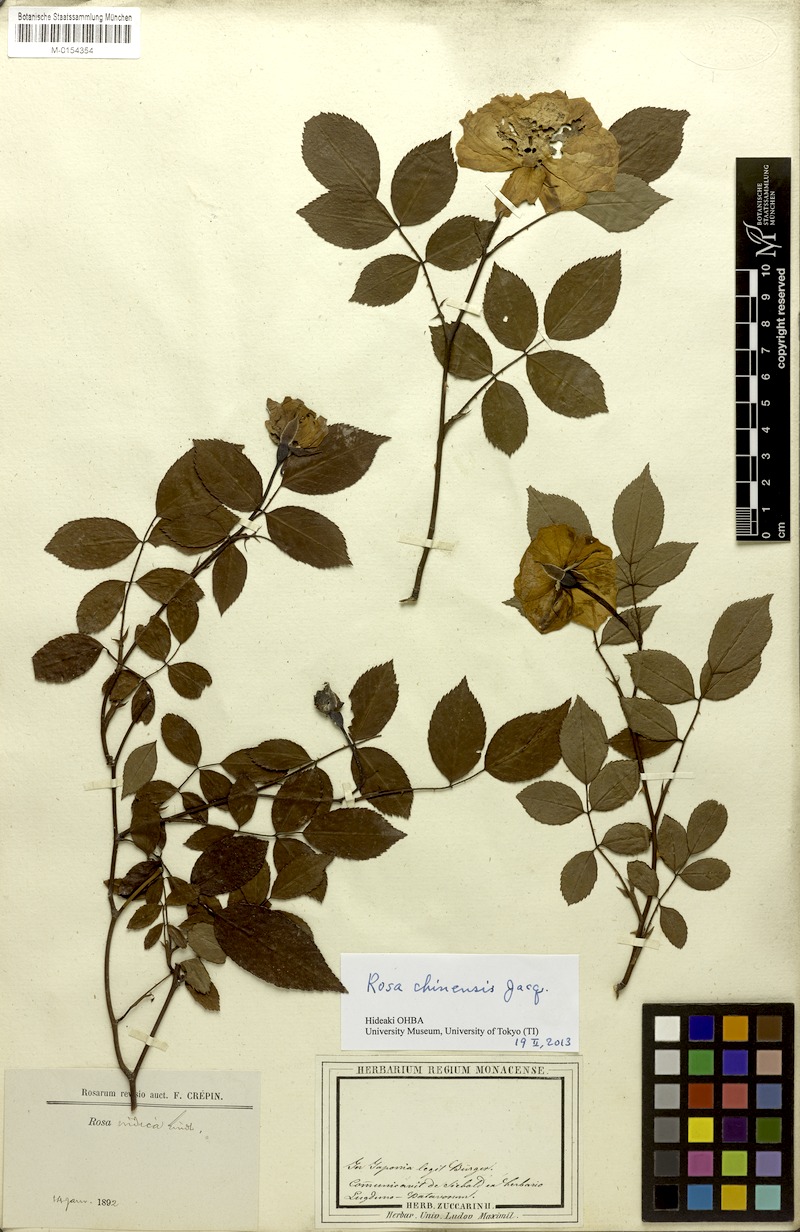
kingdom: Plantae
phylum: Tracheophyta
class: Magnoliopsida
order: Rosales
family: Rosaceae
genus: Rosa
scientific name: Rosa chinensis
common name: China rose
